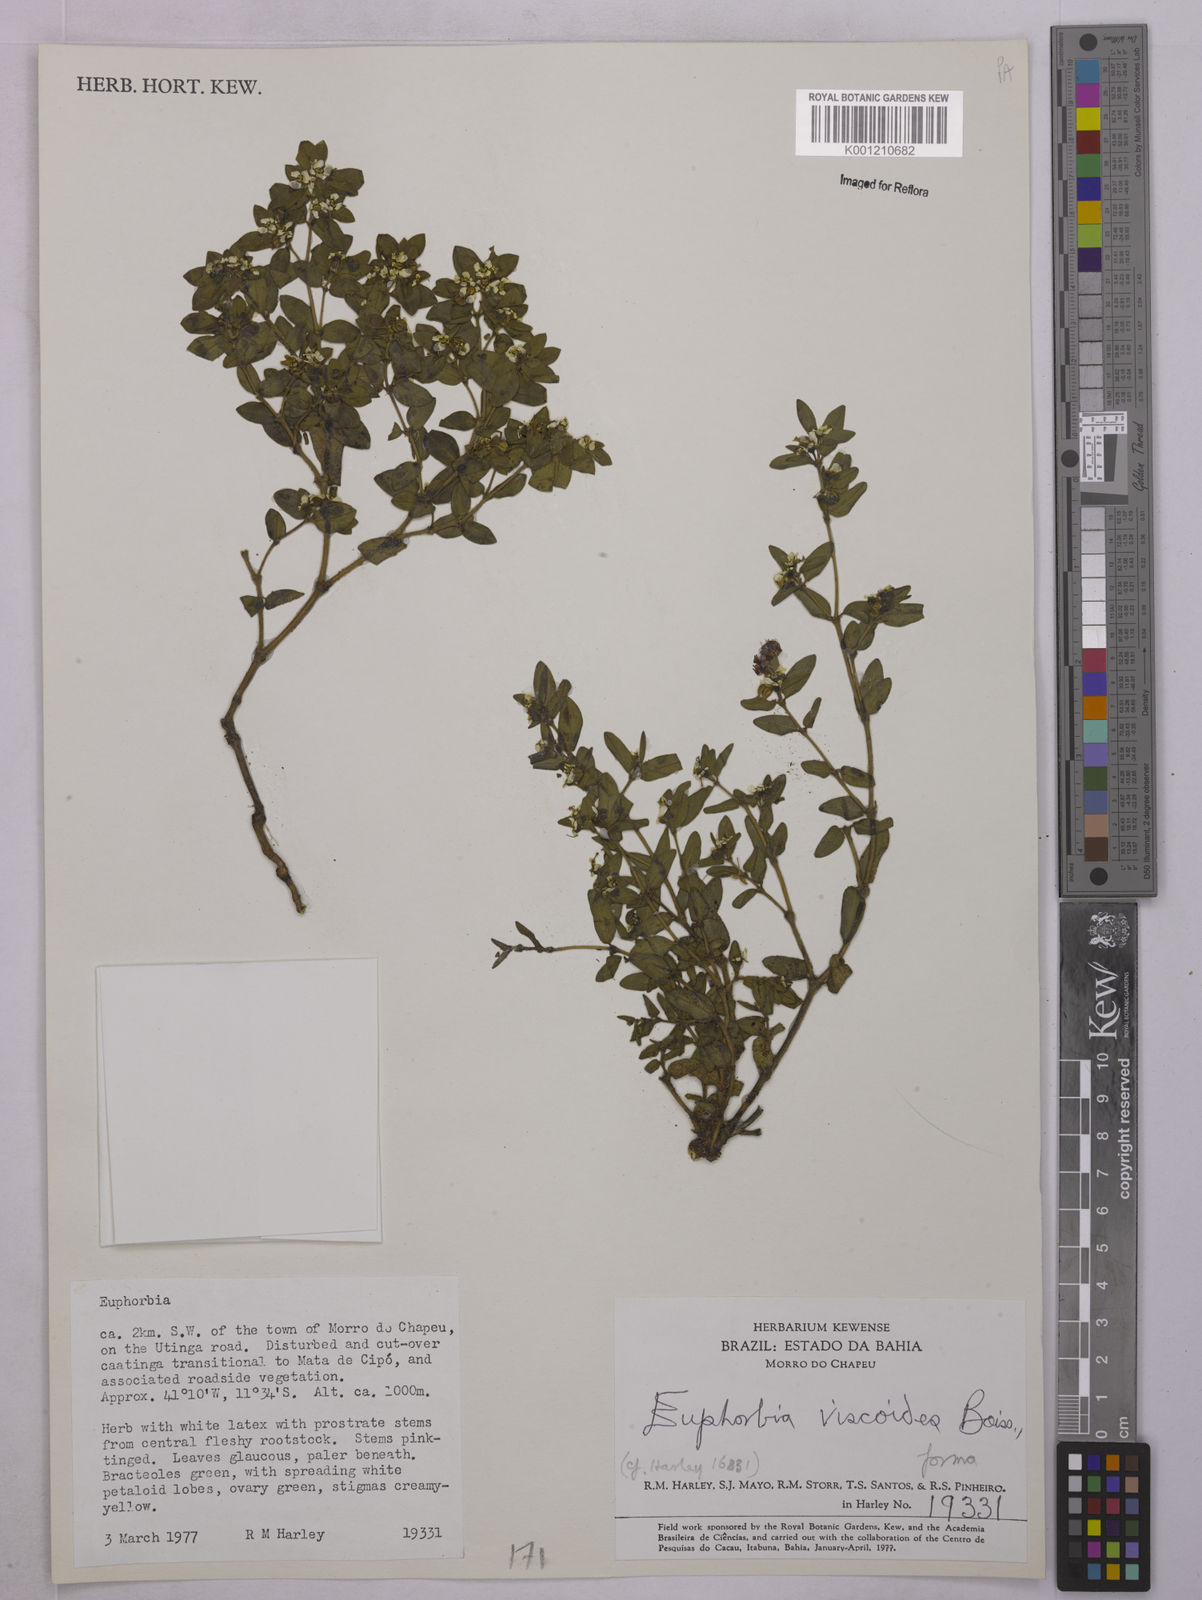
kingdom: Plantae
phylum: Tracheophyta
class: Magnoliopsida
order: Malpighiales
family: Euphorbiaceae
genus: Euphorbia
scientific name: Euphorbia viscoides
